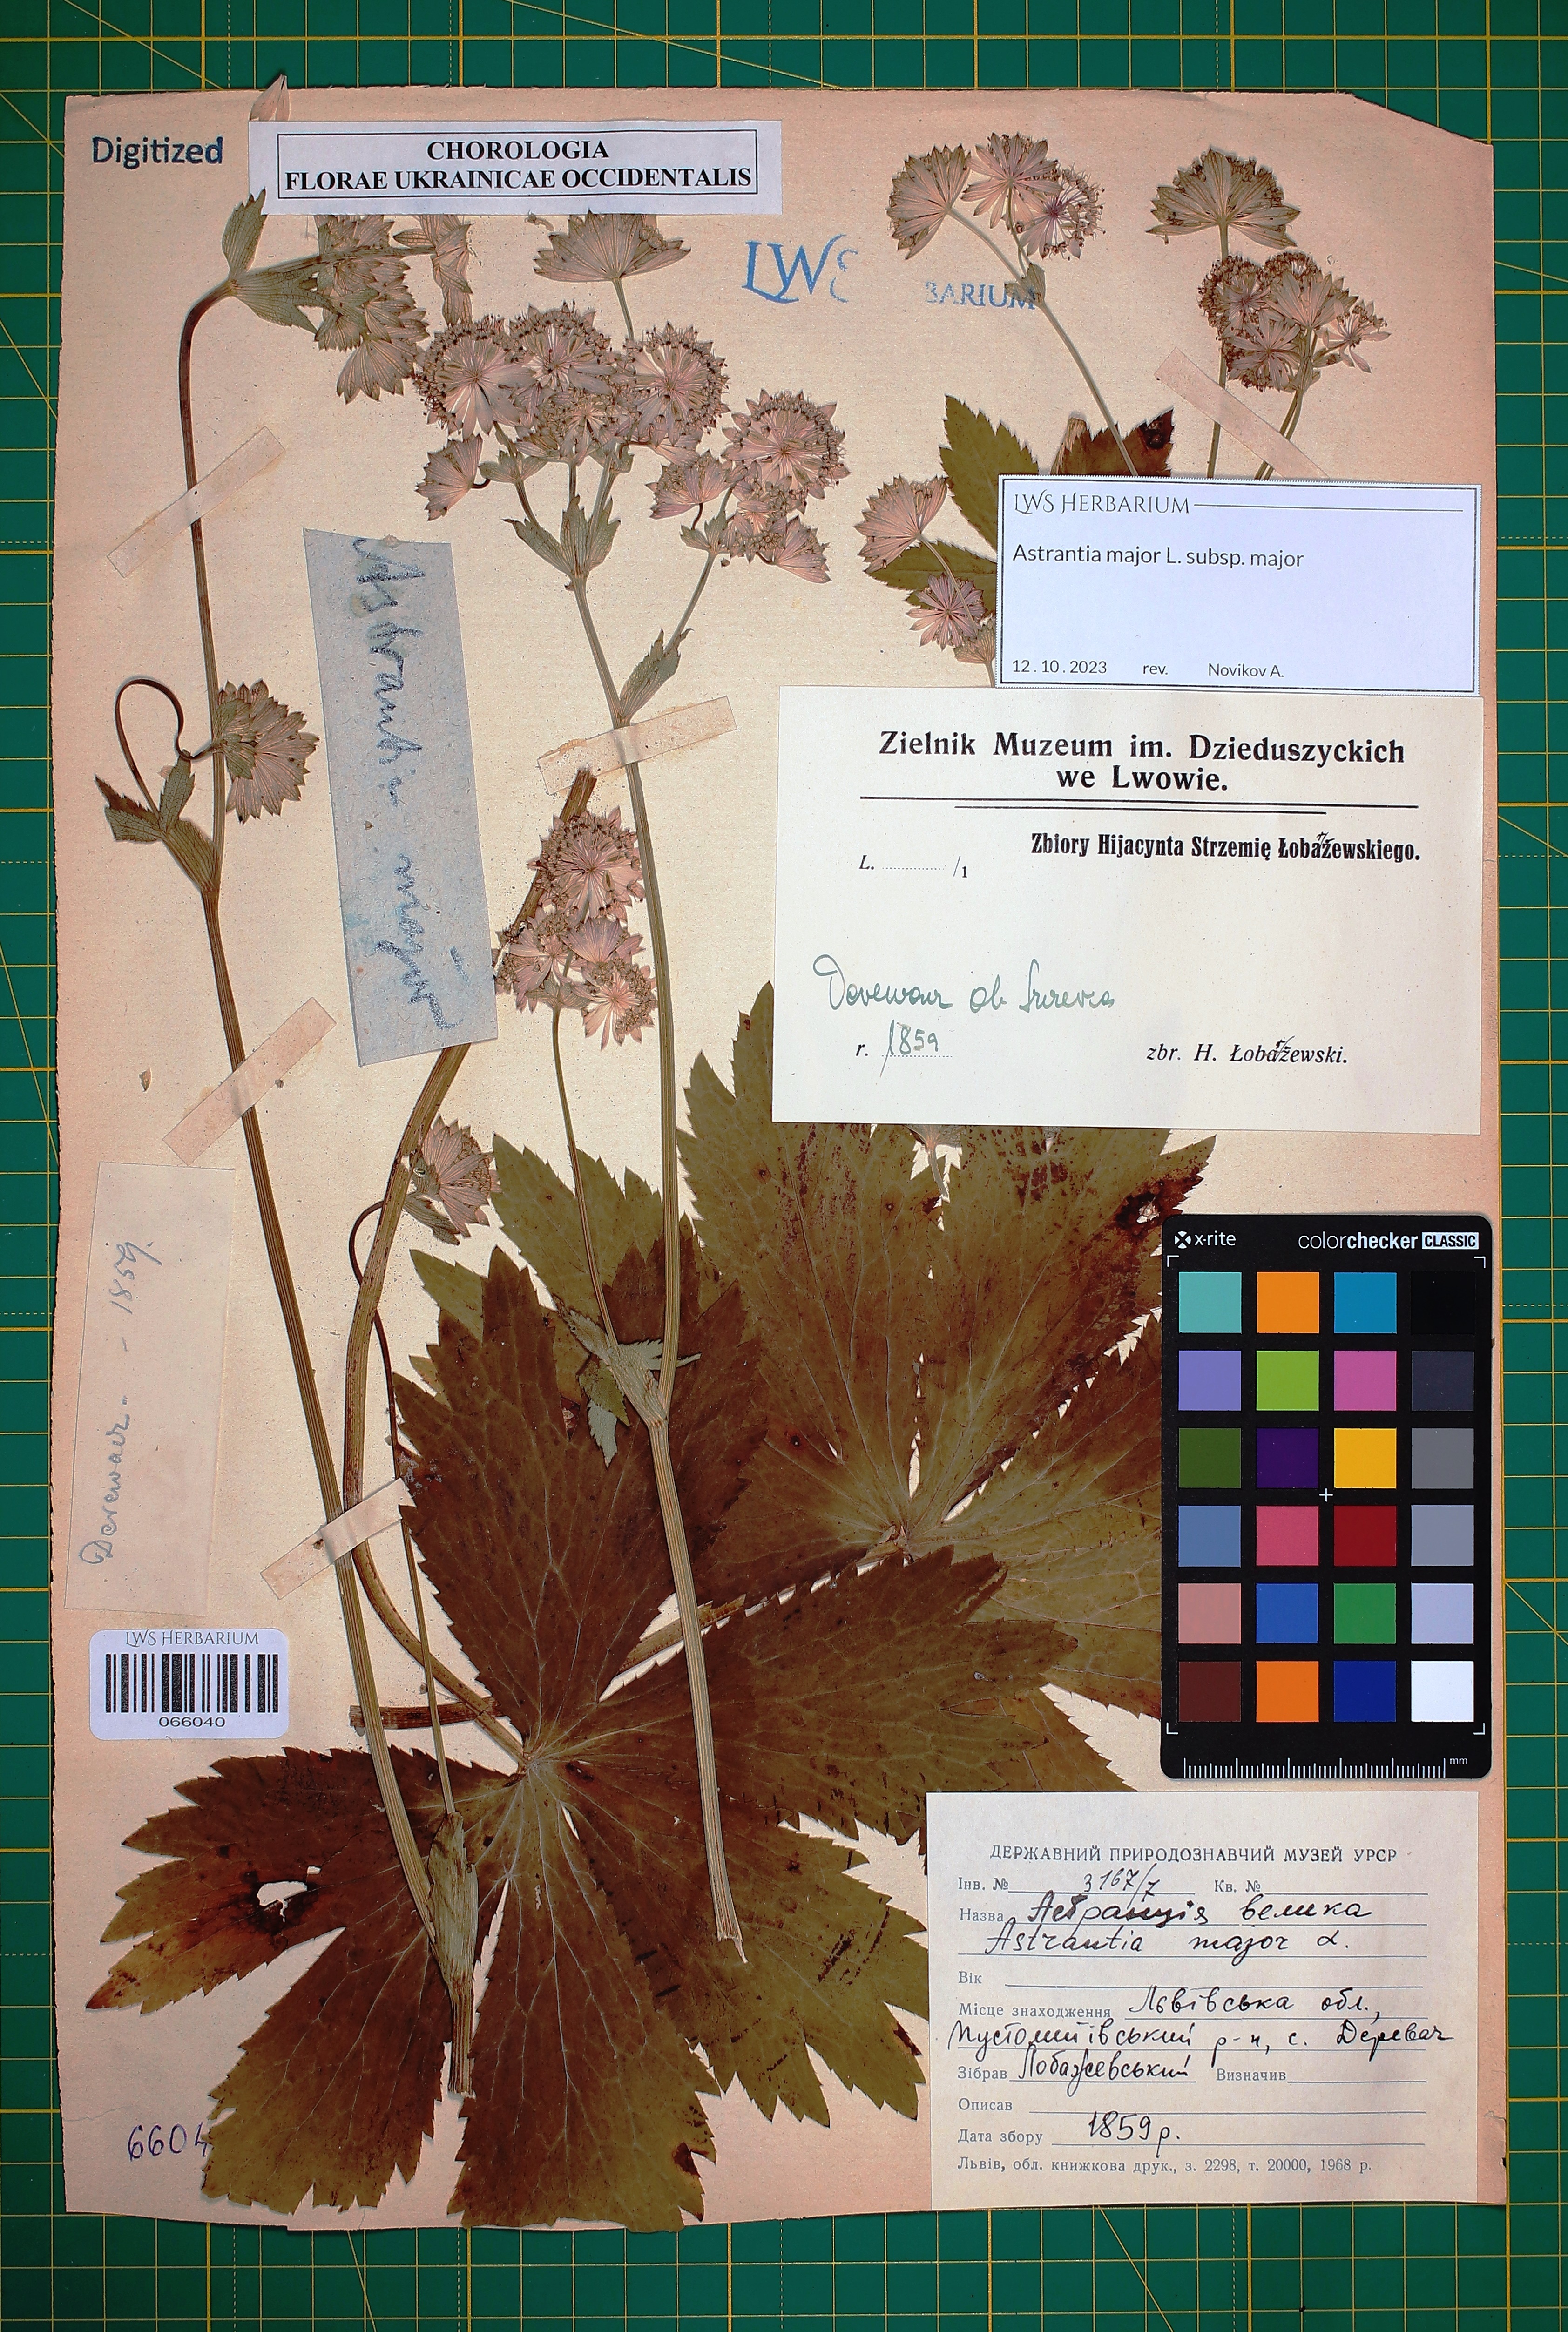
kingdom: Plantae
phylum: Tracheophyta
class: Magnoliopsida
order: Apiales
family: Apiaceae
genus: Astrantia
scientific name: Astrantia major
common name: Greater masterwort
